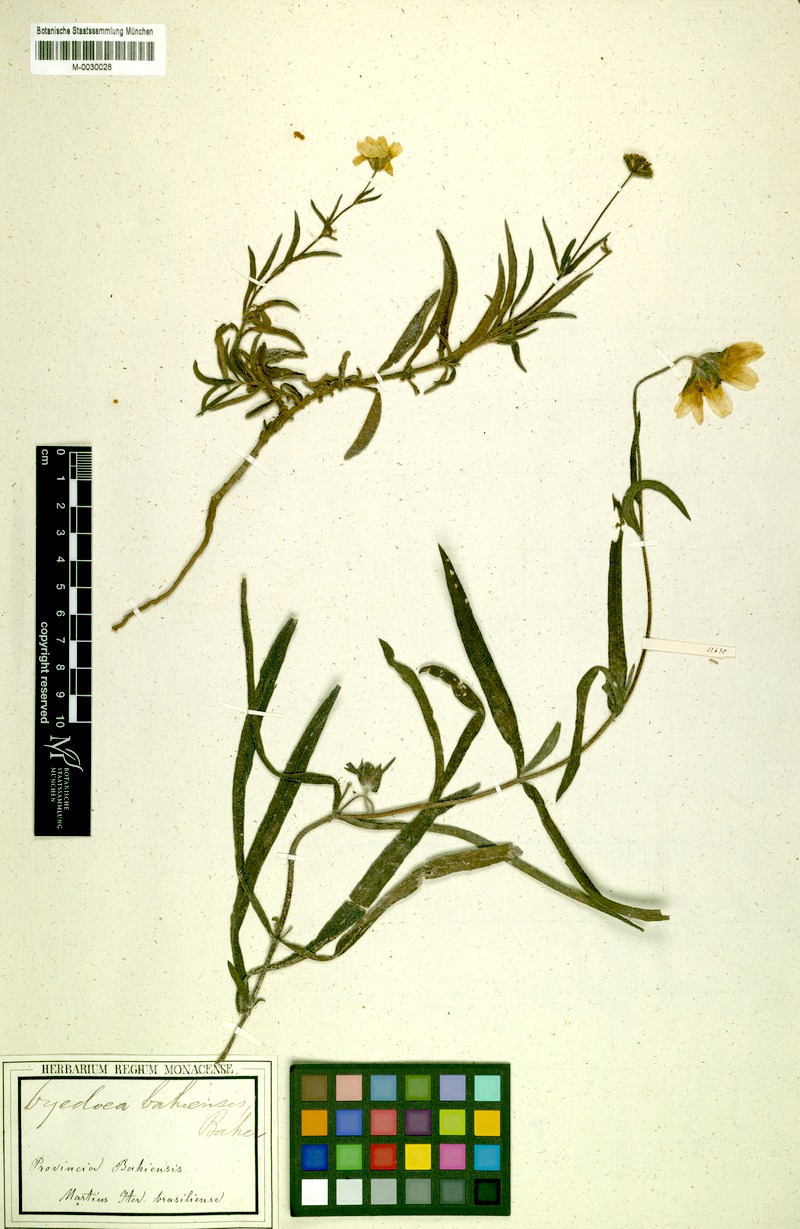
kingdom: Plantae
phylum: Tracheophyta
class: Magnoliopsida
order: Asterales
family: Asteraceae
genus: Oyedaea
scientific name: Oyedaea bahiensis
